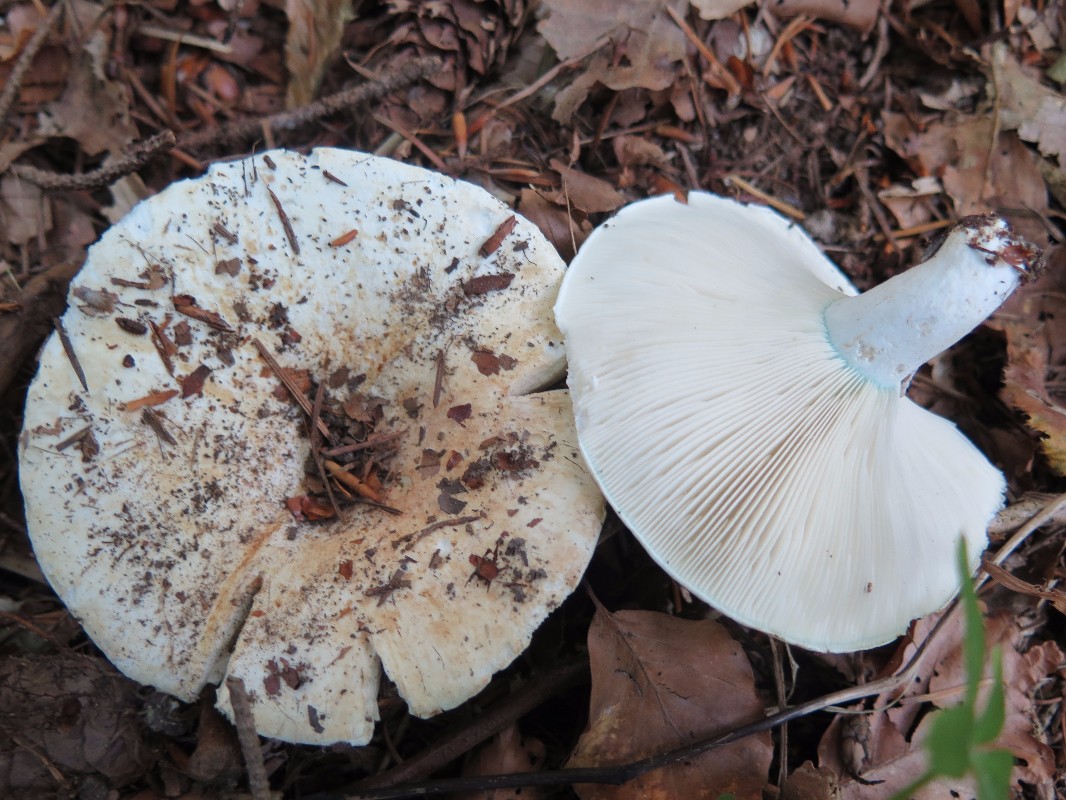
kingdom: Fungi
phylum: Basidiomycota
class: Agaricomycetes
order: Russulales
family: Russulaceae
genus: Russula
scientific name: Russula chloroides
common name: grønhalset tragt-skørhat
